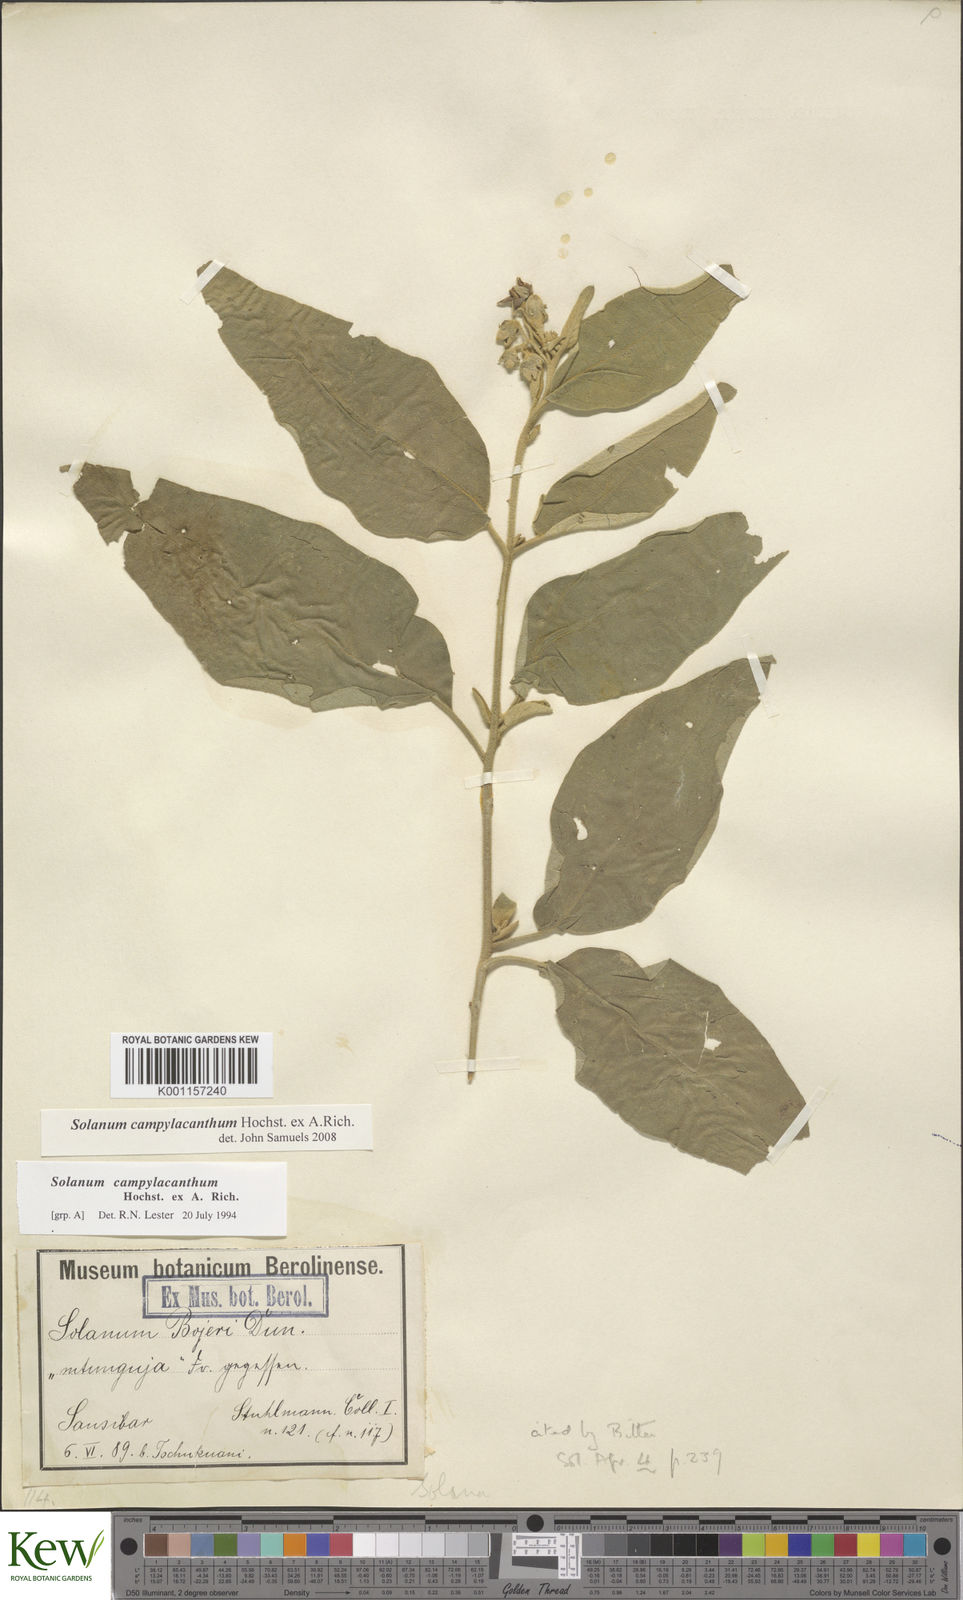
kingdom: Plantae
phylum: Tracheophyta
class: Magnoliopsida
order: Solanales
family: Solanaceae
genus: Solanum
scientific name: Solanum campylacanthum
